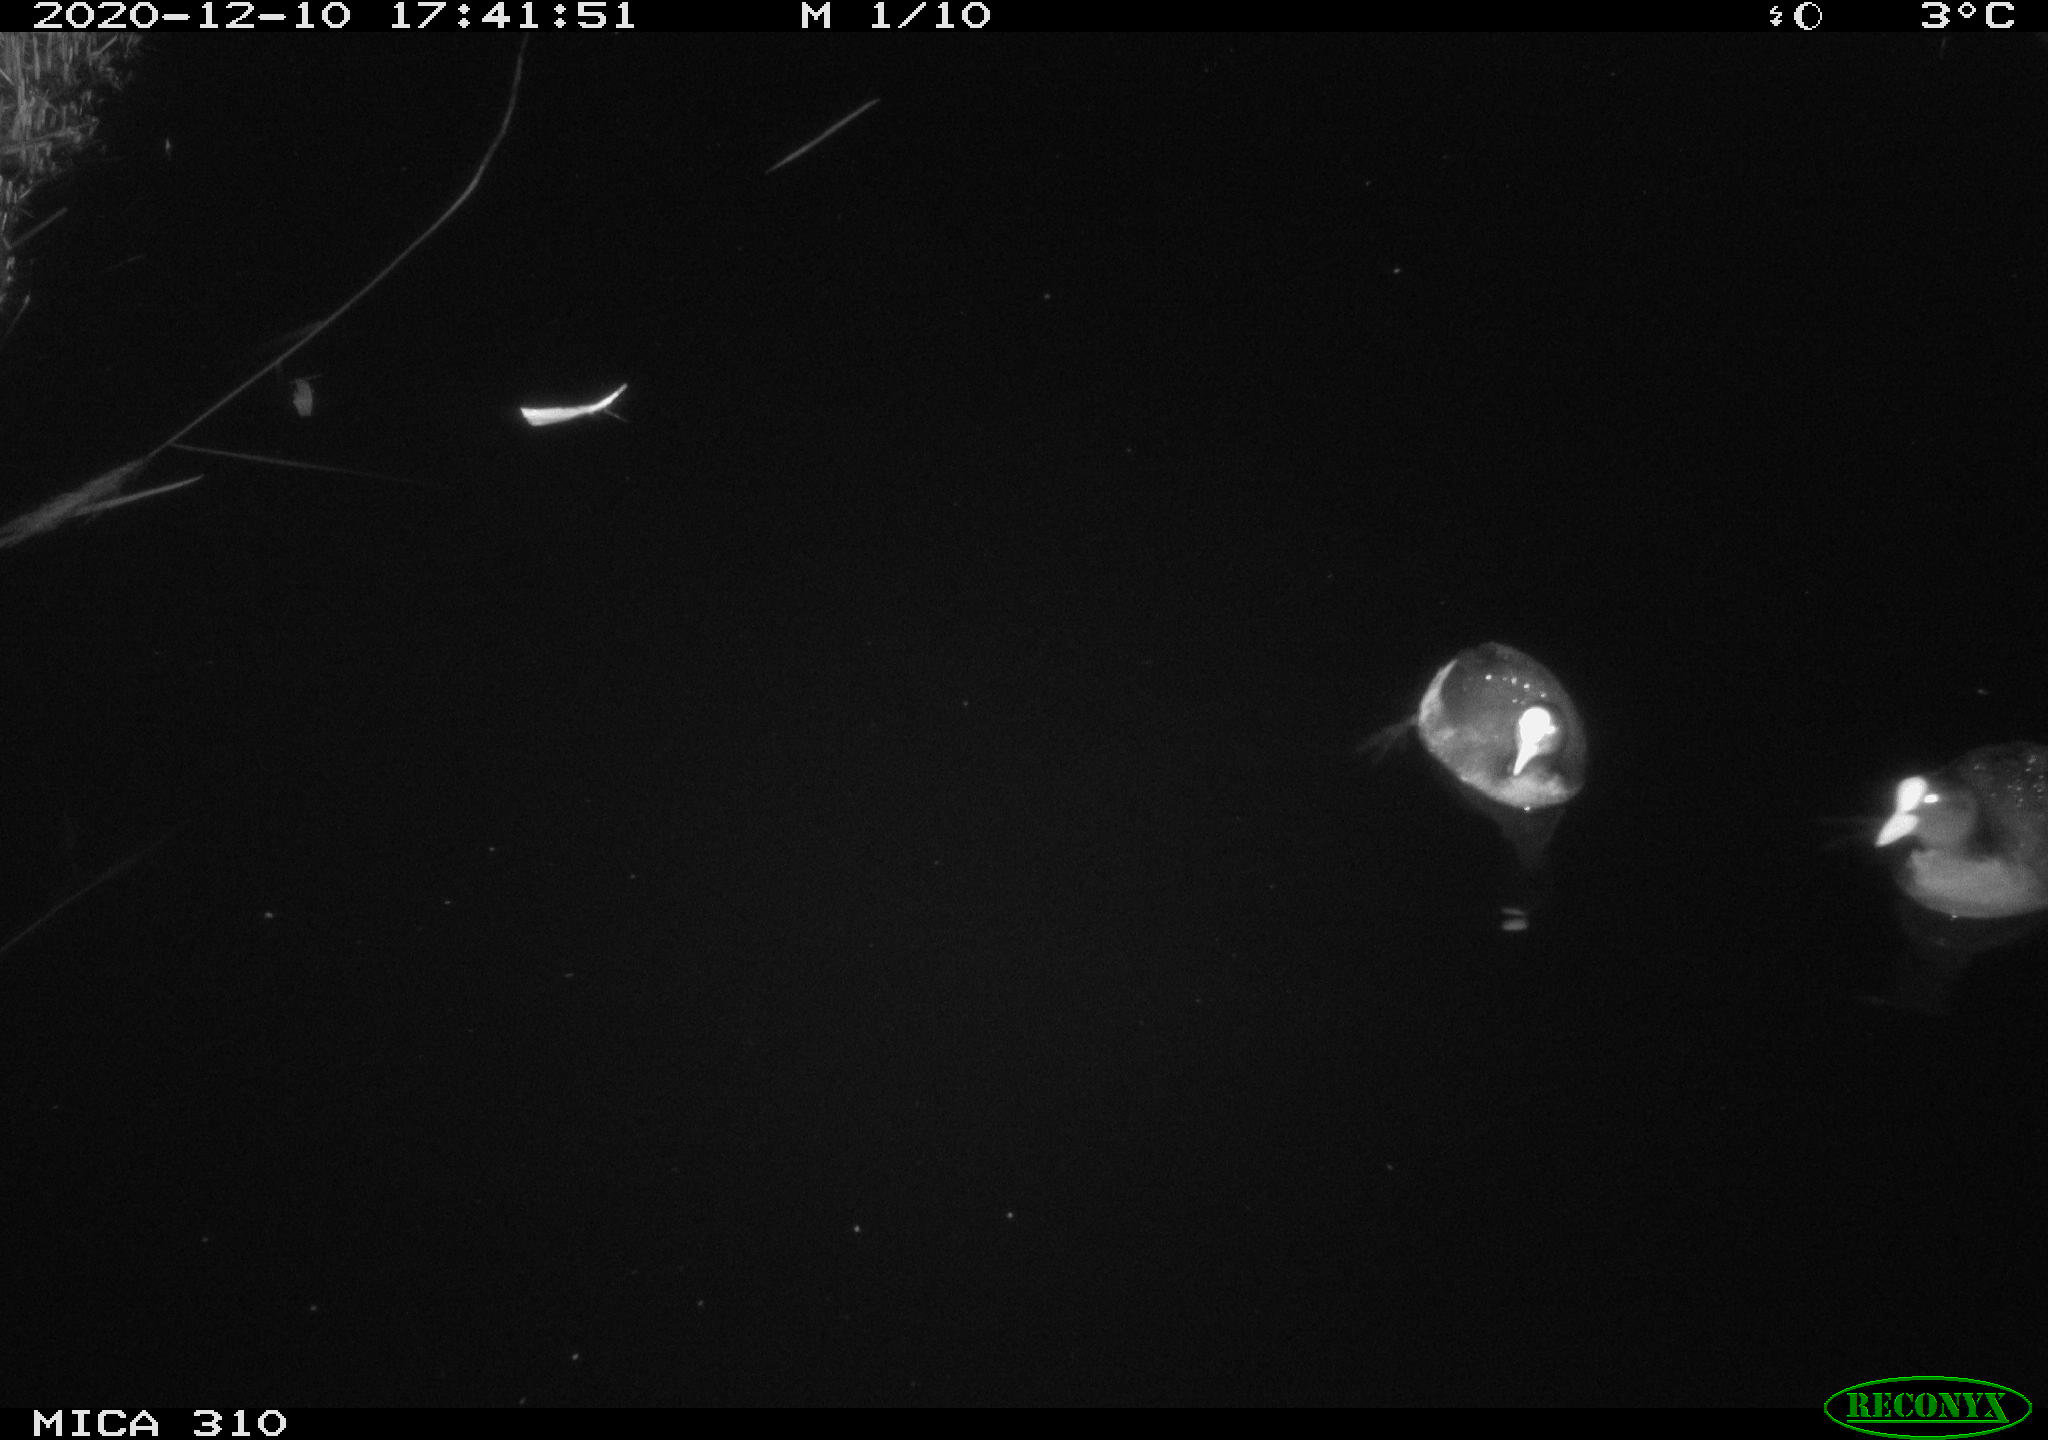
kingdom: Animalia
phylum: Chordata
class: Aves
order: Gruiformes
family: Rallidae
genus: Fulica
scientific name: Fulica atra
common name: Eurasian coot
